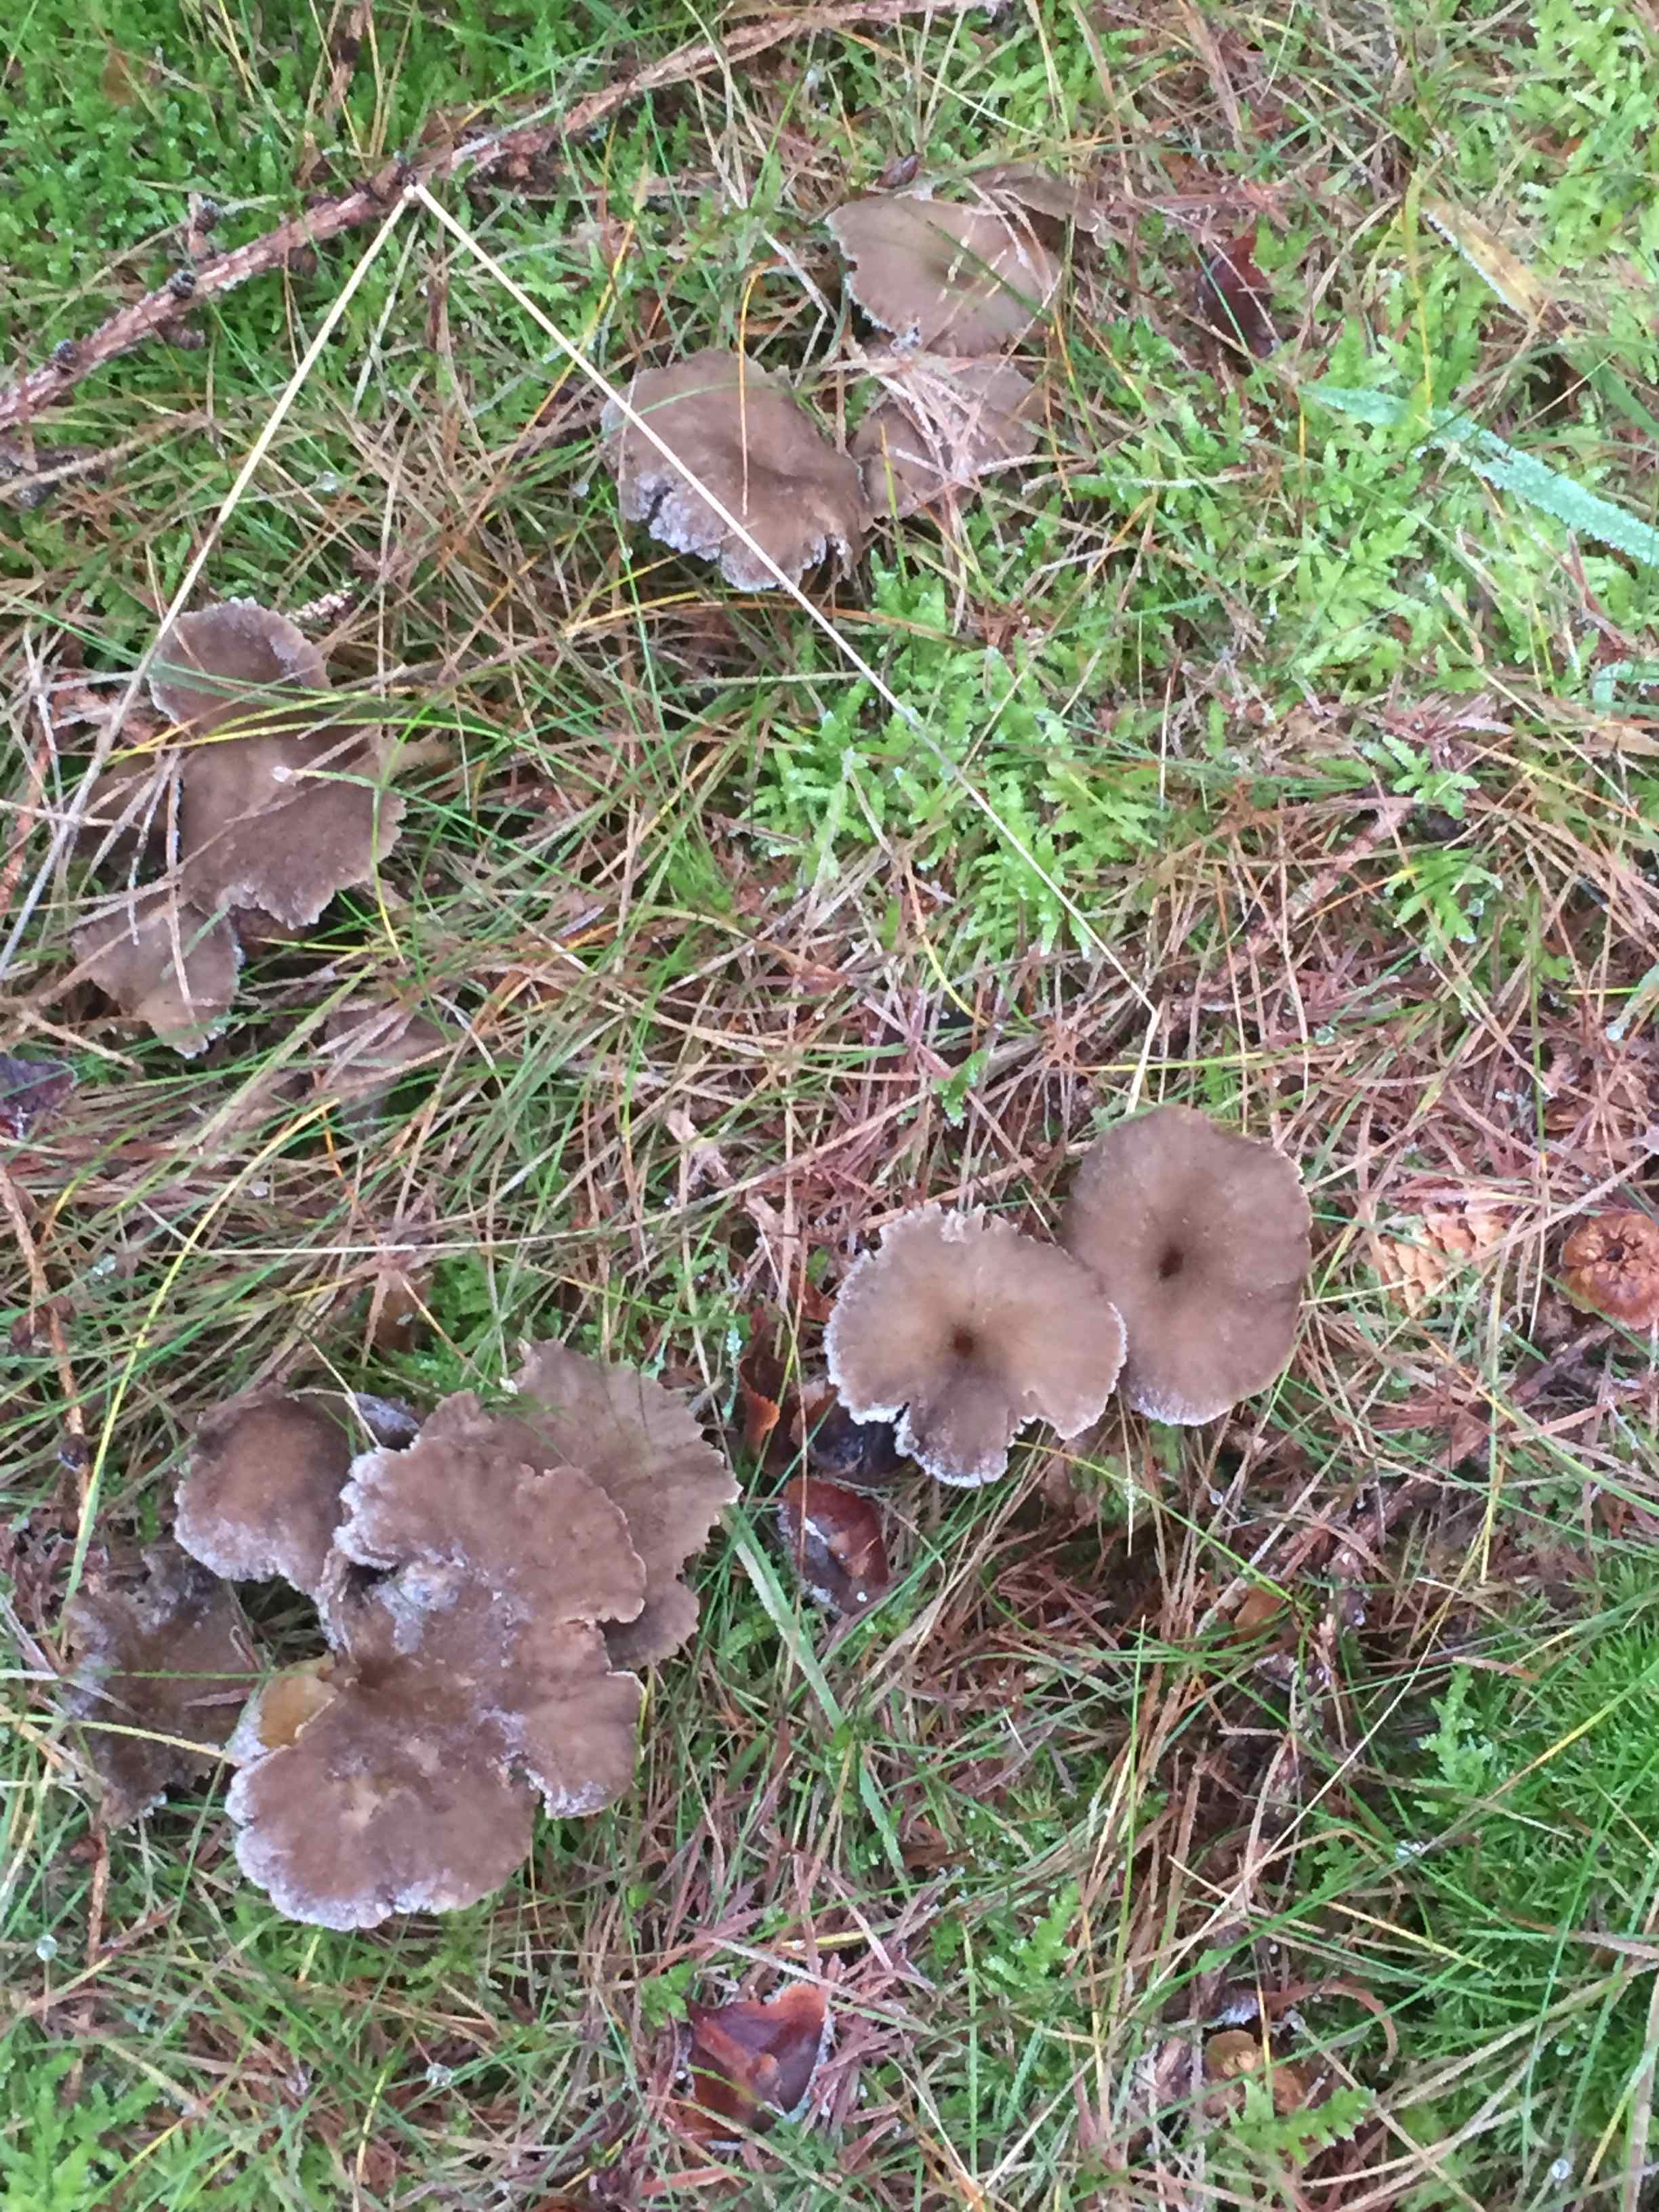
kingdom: Fungi
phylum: Basidiomycota
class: Agaricomycetes
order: Cantharellales
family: Hydnaceae
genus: Craterellus
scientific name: Craterellus tubaeformis
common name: tragt-kantarel
